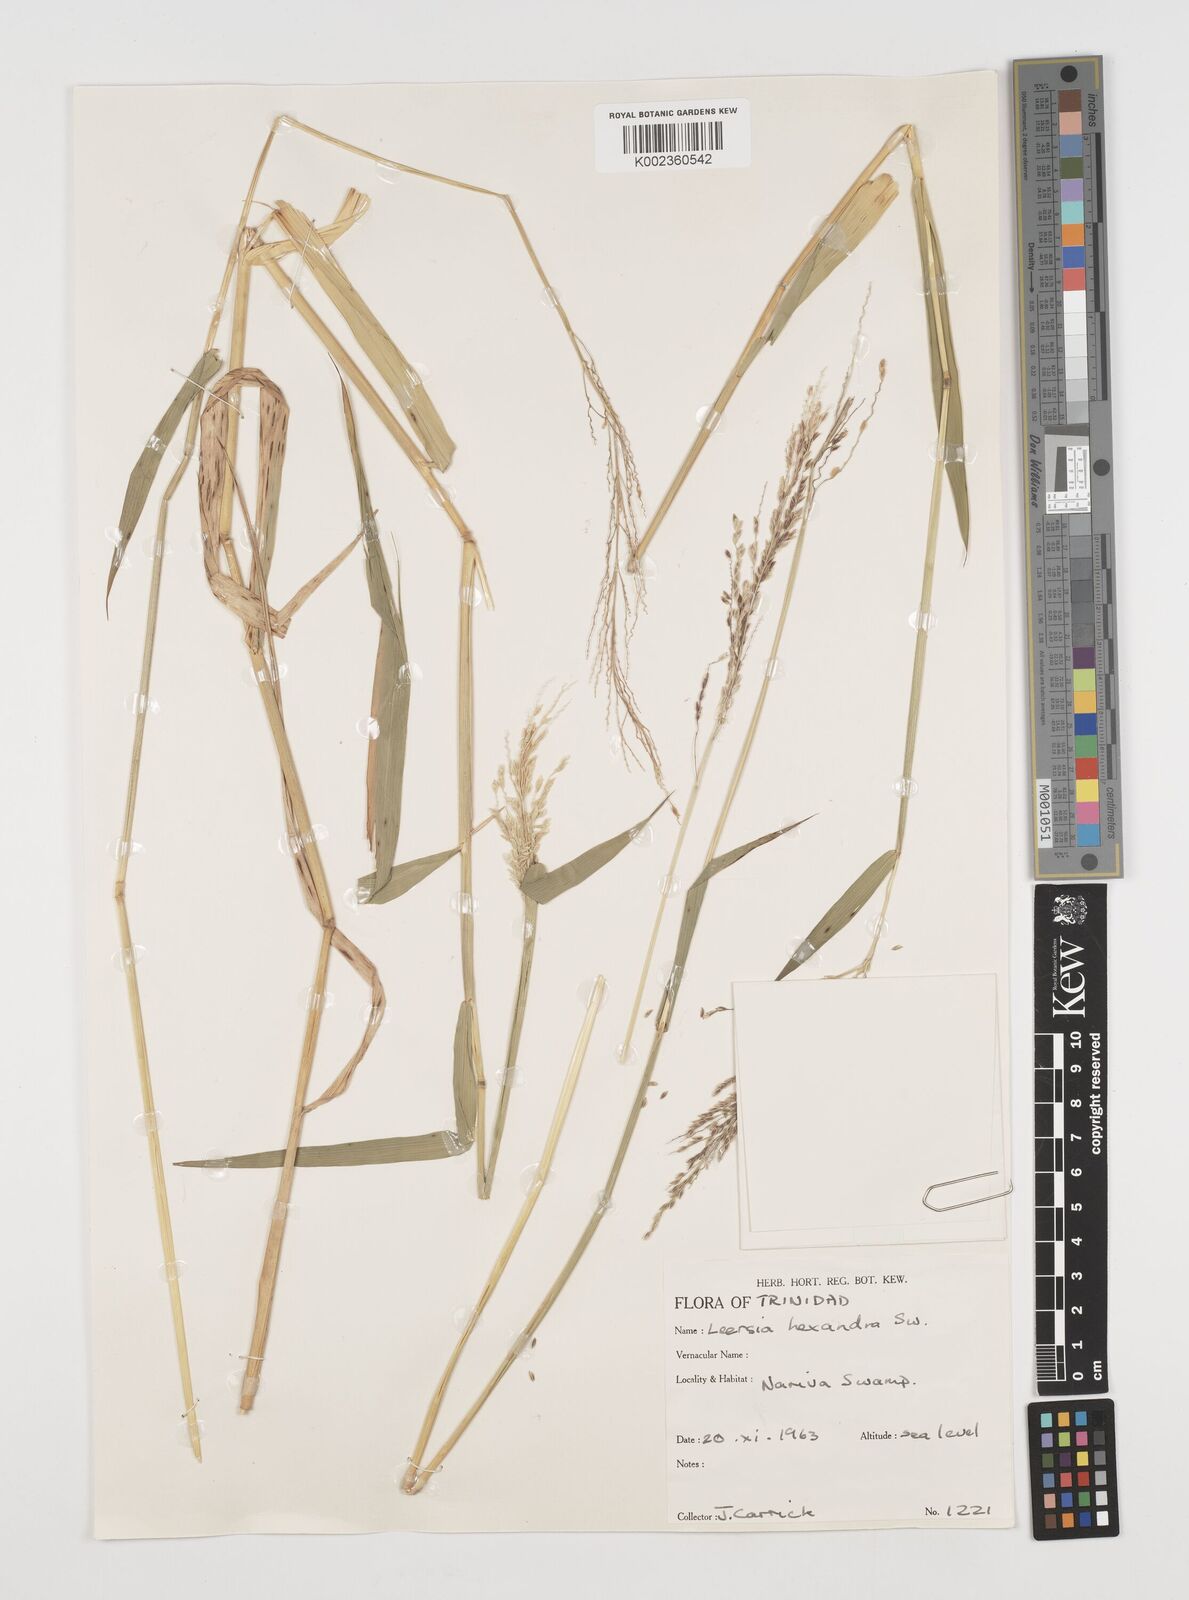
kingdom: Plantae
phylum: Tracheophyta
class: Liliopsida
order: Poales
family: Poaceae
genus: Leersia
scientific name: Leersia hexandra
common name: Southern cut grass
